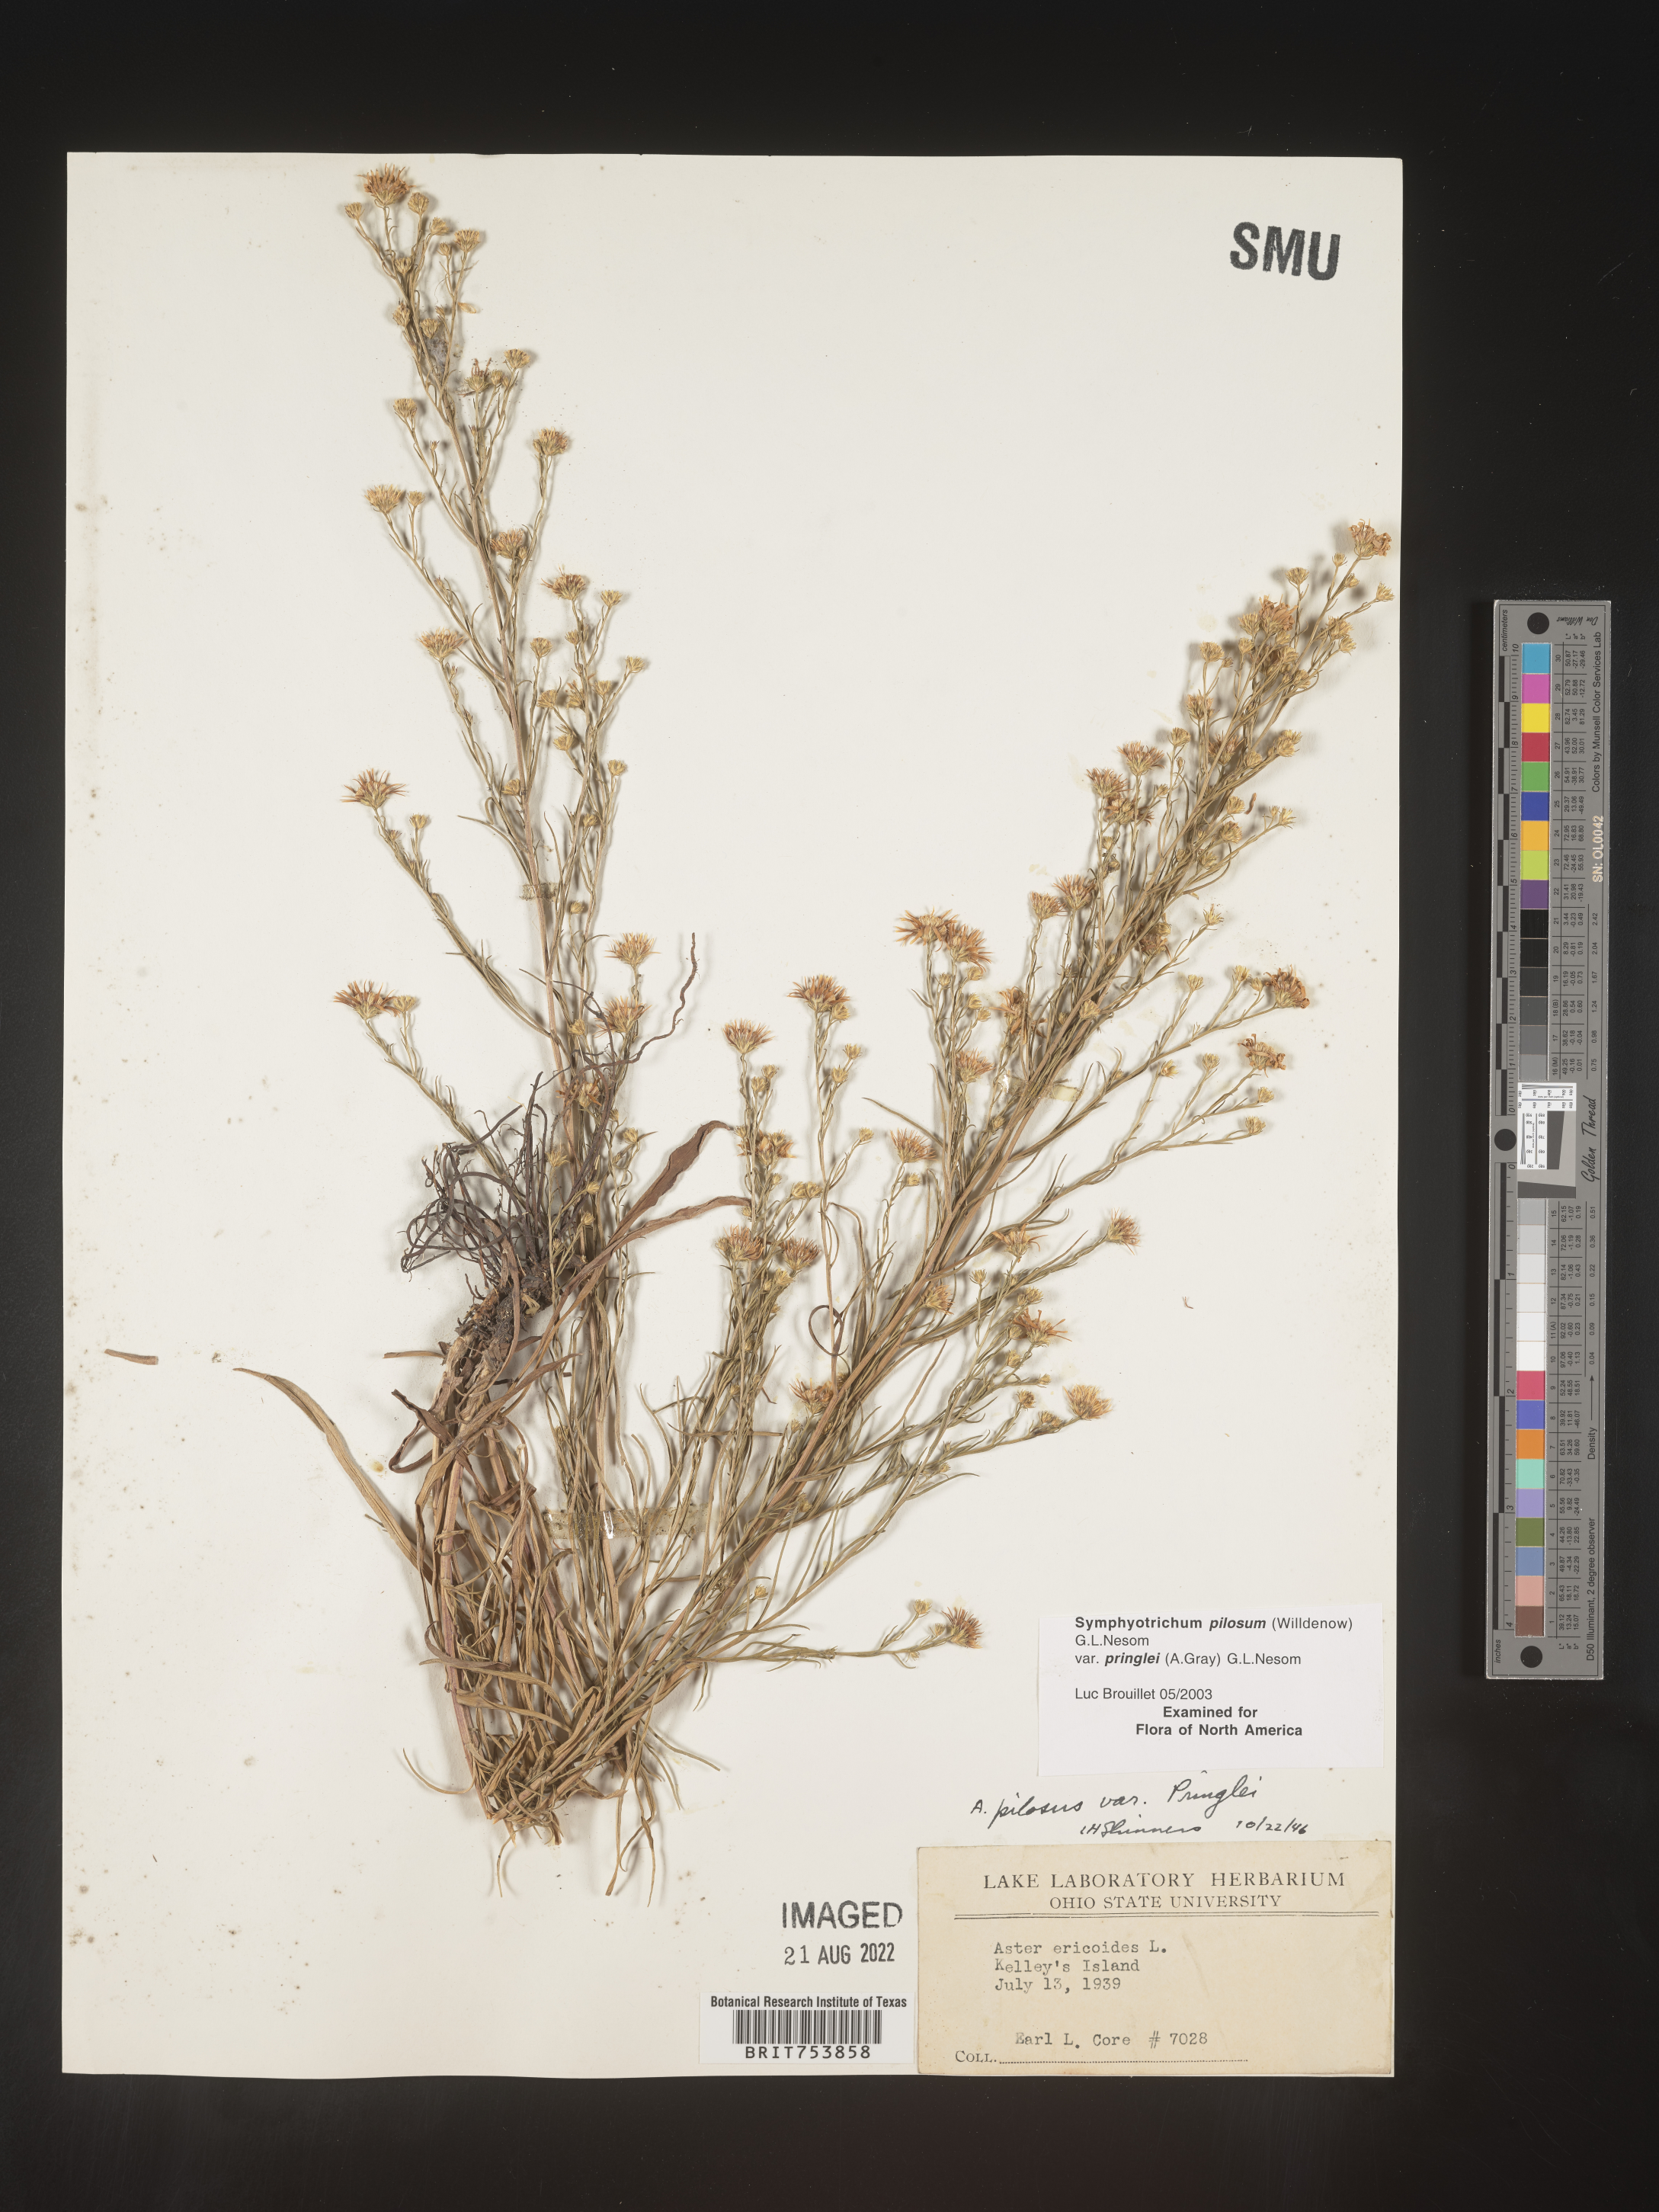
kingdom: Plantae
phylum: Tracheophyta
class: Magnoliopsida
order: Asterales
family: Asteraceae
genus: Symphyotrichum
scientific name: Symphyotrichum pilosum
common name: Awl aster
